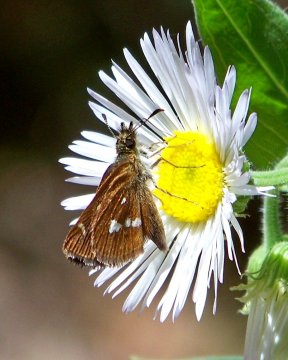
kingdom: Animalia
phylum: Arthropoda
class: Insecta
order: Lepidoptera
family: Hesperiidae
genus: Piruna
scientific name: Piruna polingii
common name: Four-spotted Skipperling
